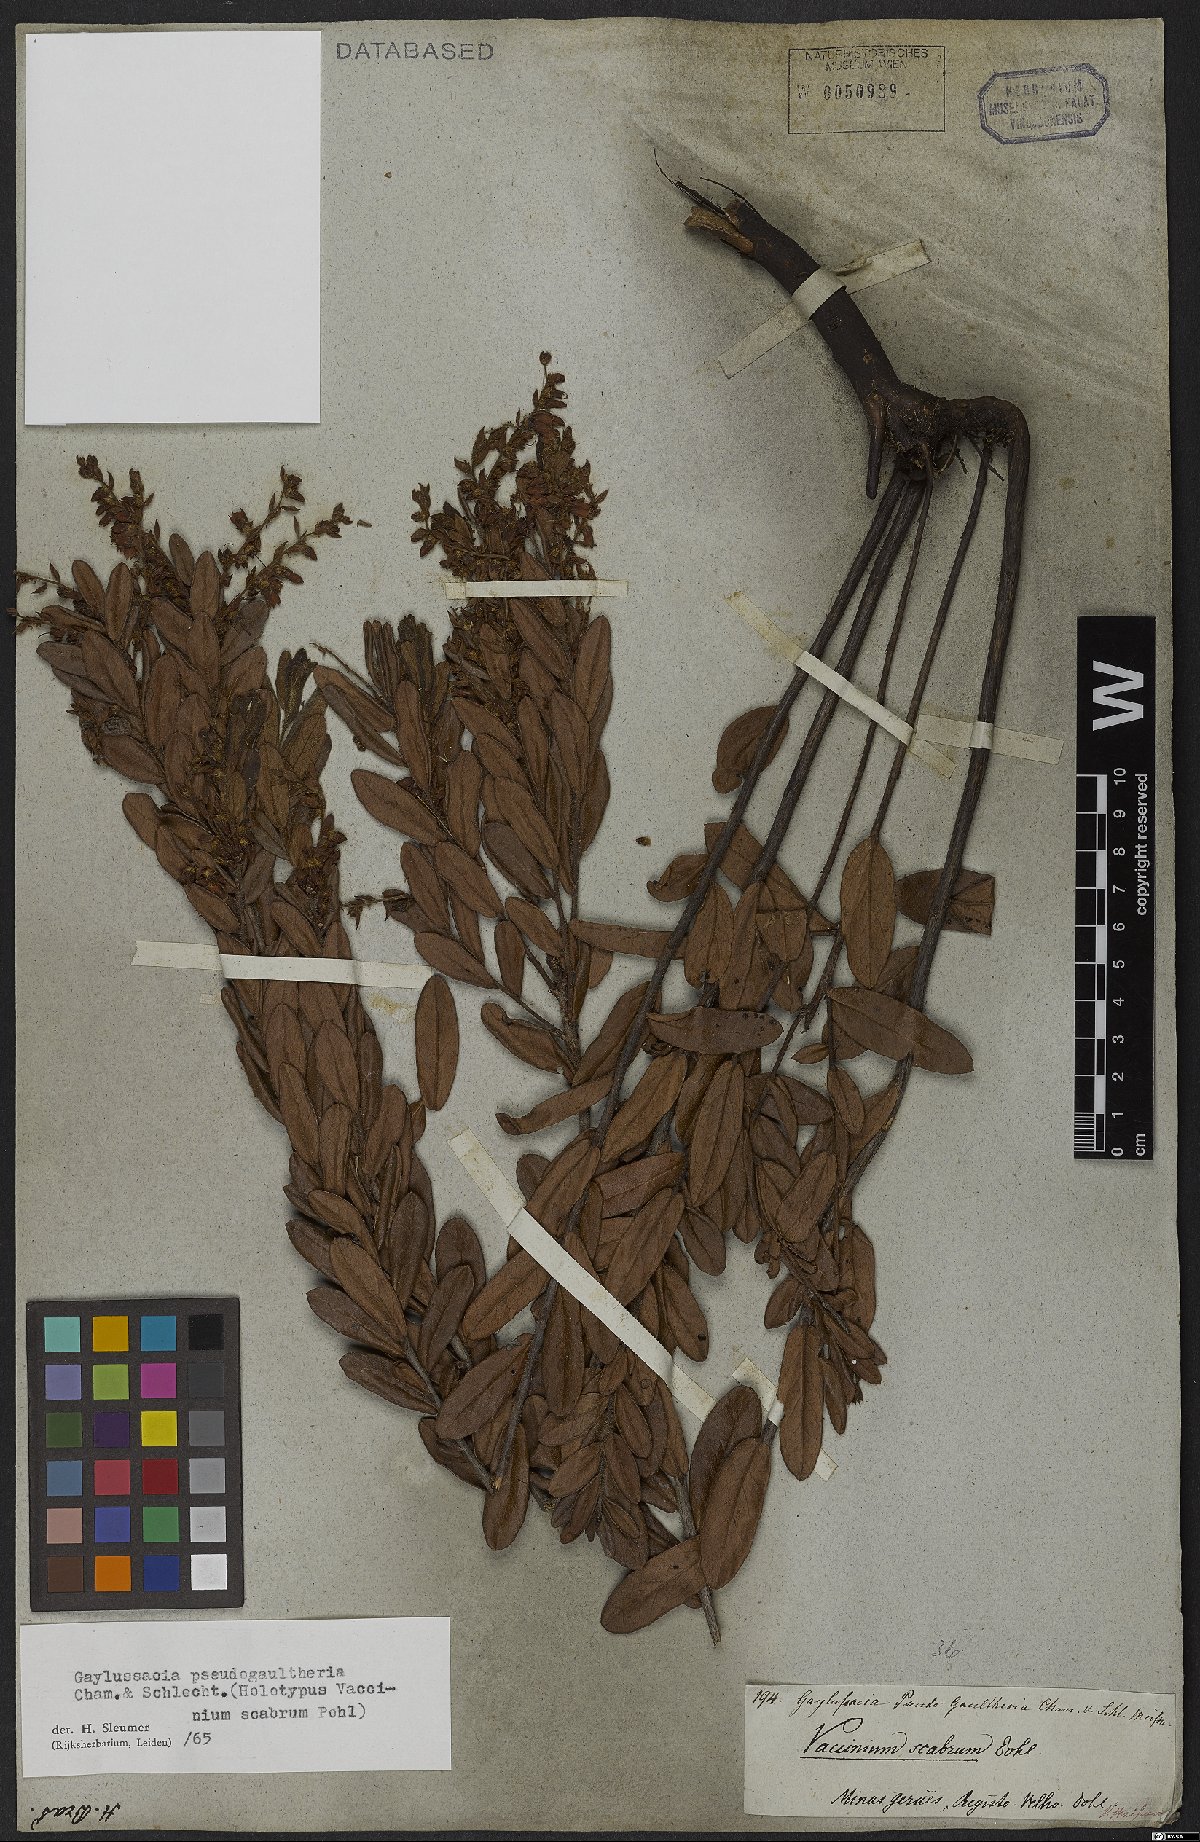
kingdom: Plantae
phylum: Tracheophyta
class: Magnoliopsida
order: Ericales
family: Ericaceae
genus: Gaylussacia
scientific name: Gaylussacia pseudogaultheria
